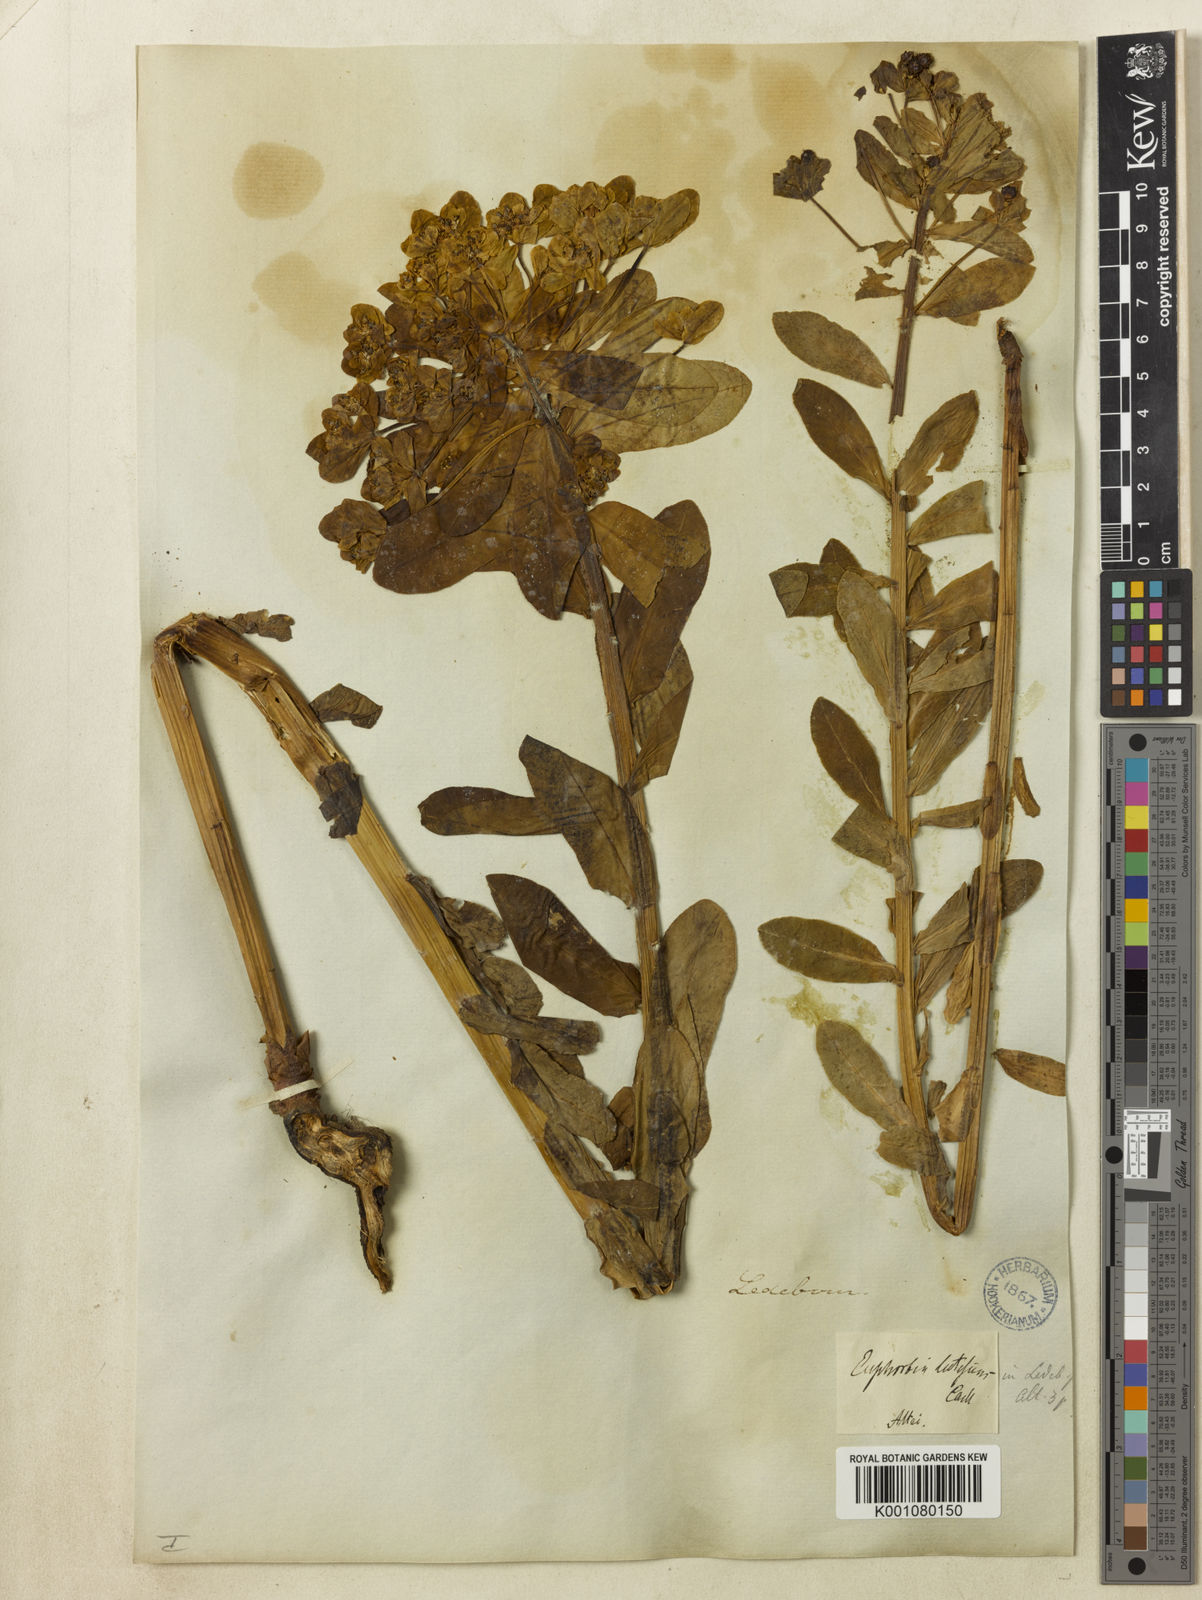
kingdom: Plantae
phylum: Tracheophyta
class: Magnoliopsida
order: Malpighiales
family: Euphorbiaceae
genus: Euphorbia
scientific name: Euphorbia
